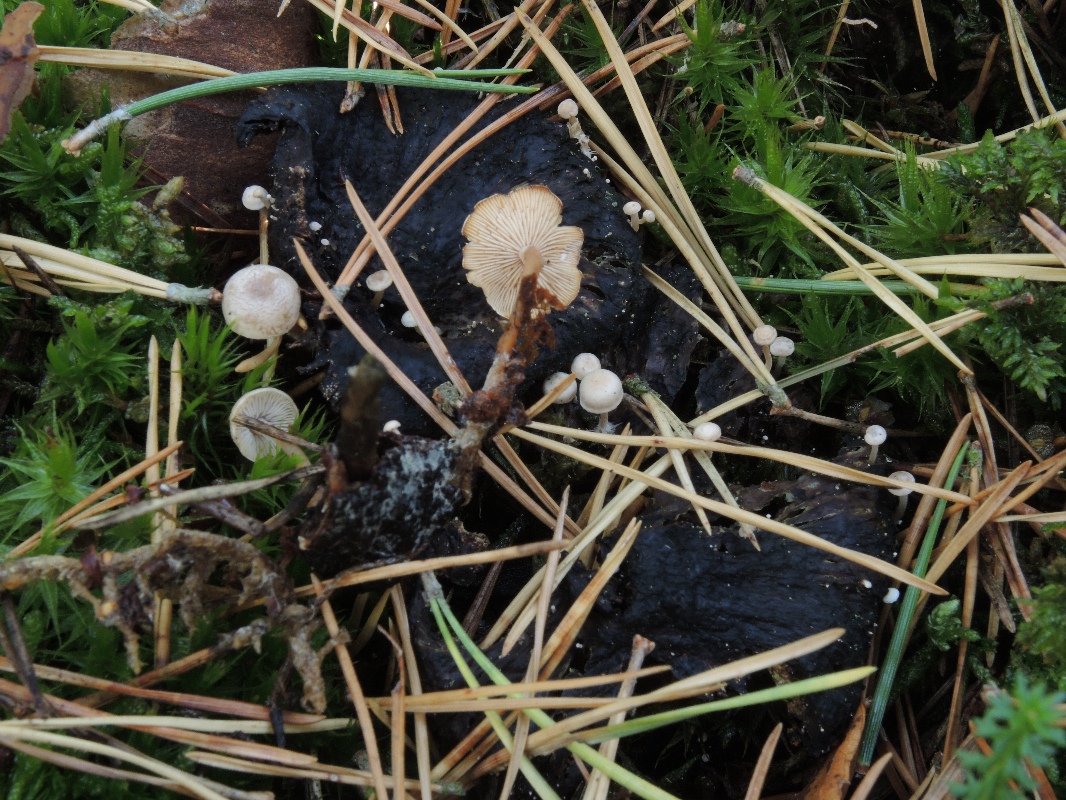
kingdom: Fungi
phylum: Basidiomycota
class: Agaricomycetes
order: Agaricales
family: Tricholomataceae
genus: Collybia
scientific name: Collybia cirrhata
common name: silke-lighat
